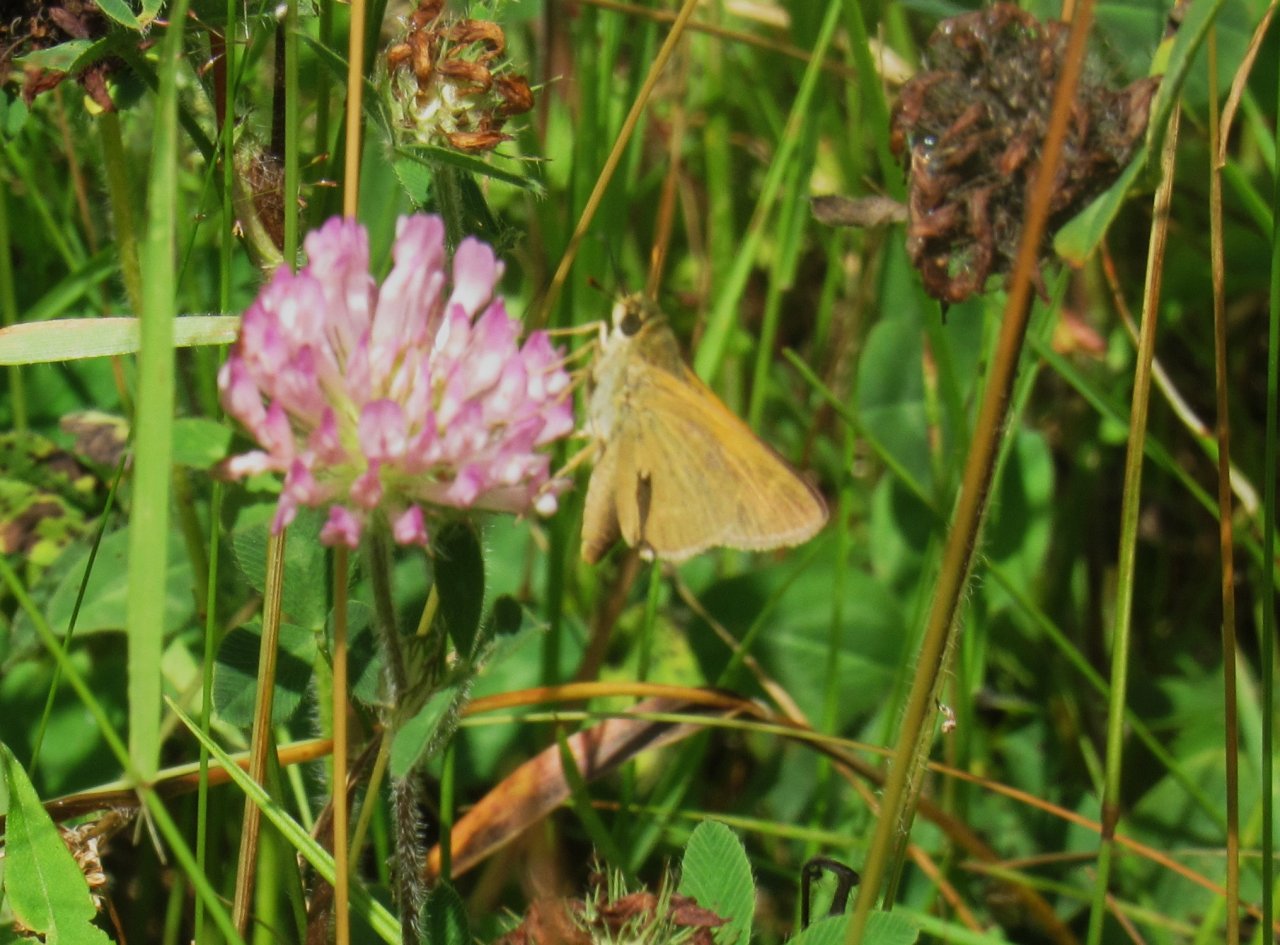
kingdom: Animalia
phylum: Arthropoda
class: Insecta
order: Lepidoptera
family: Hesperiidae
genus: Thymelicus
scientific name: Thymelicus lineola
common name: European Skipper
